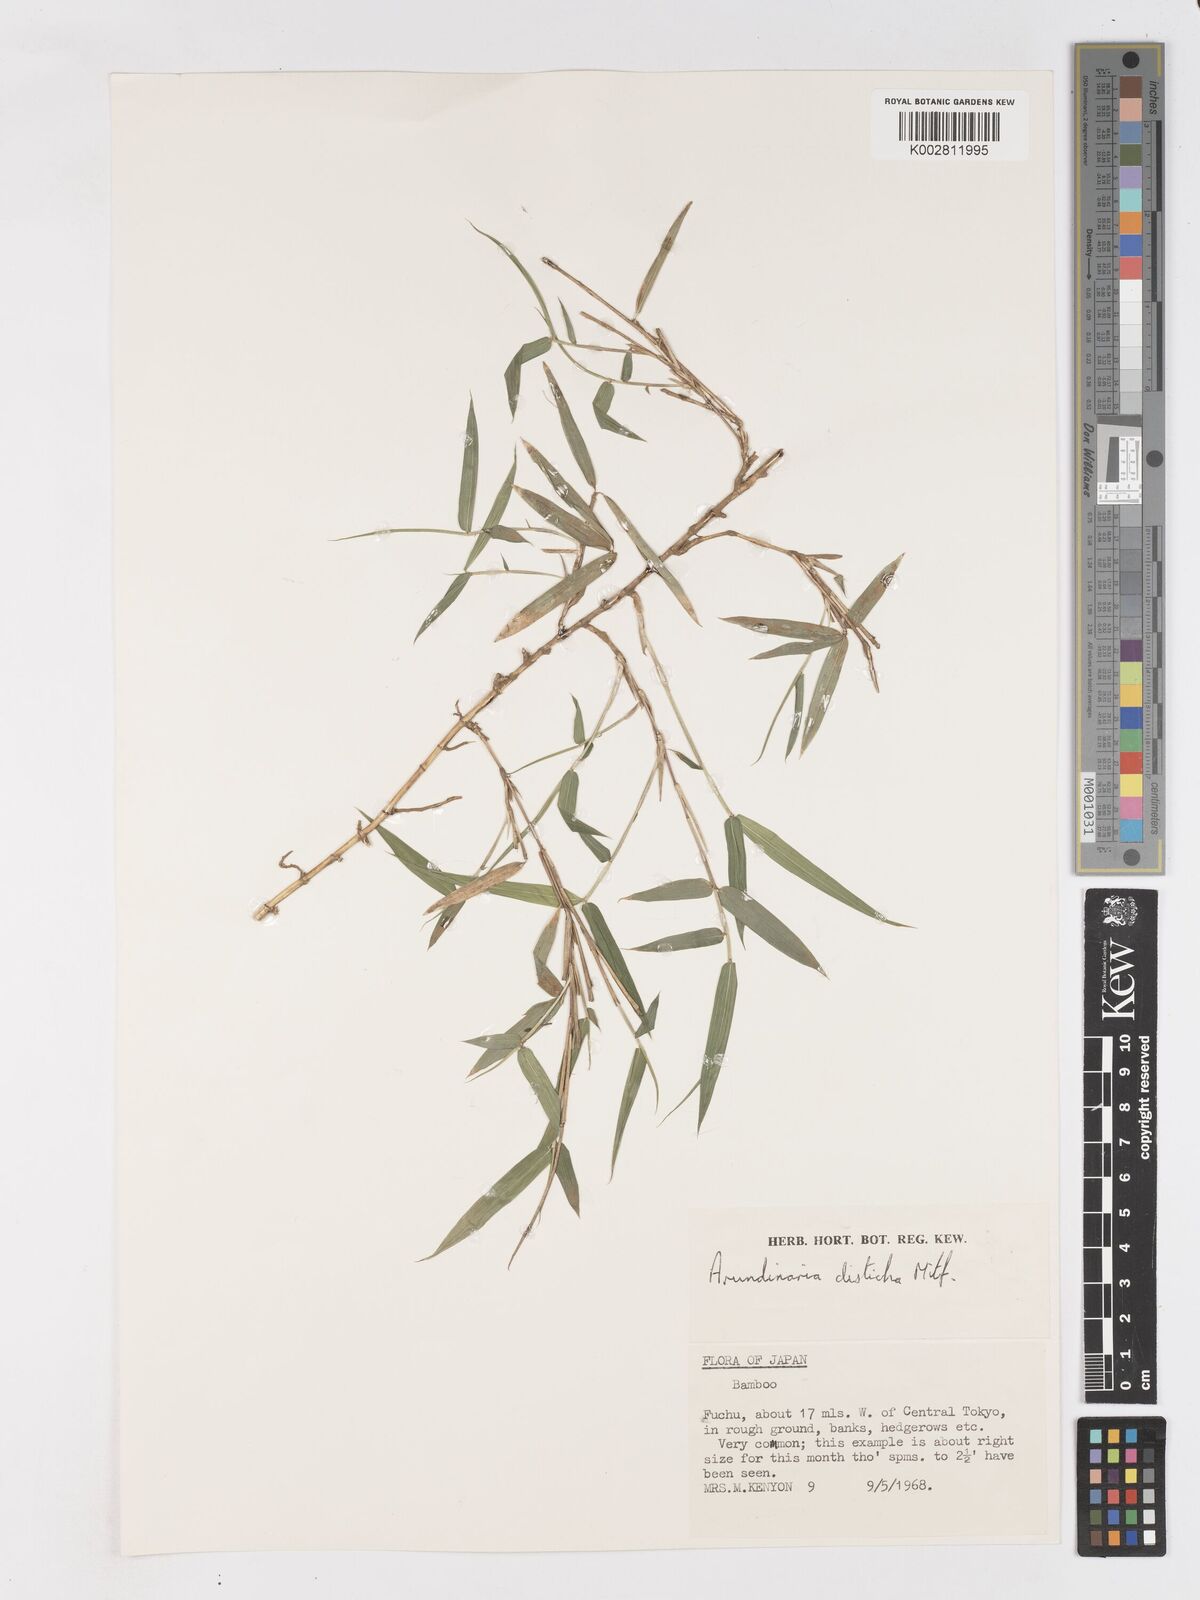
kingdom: Plantae
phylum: Tracheophyta
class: Liliopsida
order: Poales
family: Poaceae
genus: Pleioblastus
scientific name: Pleioblastus variegatus
